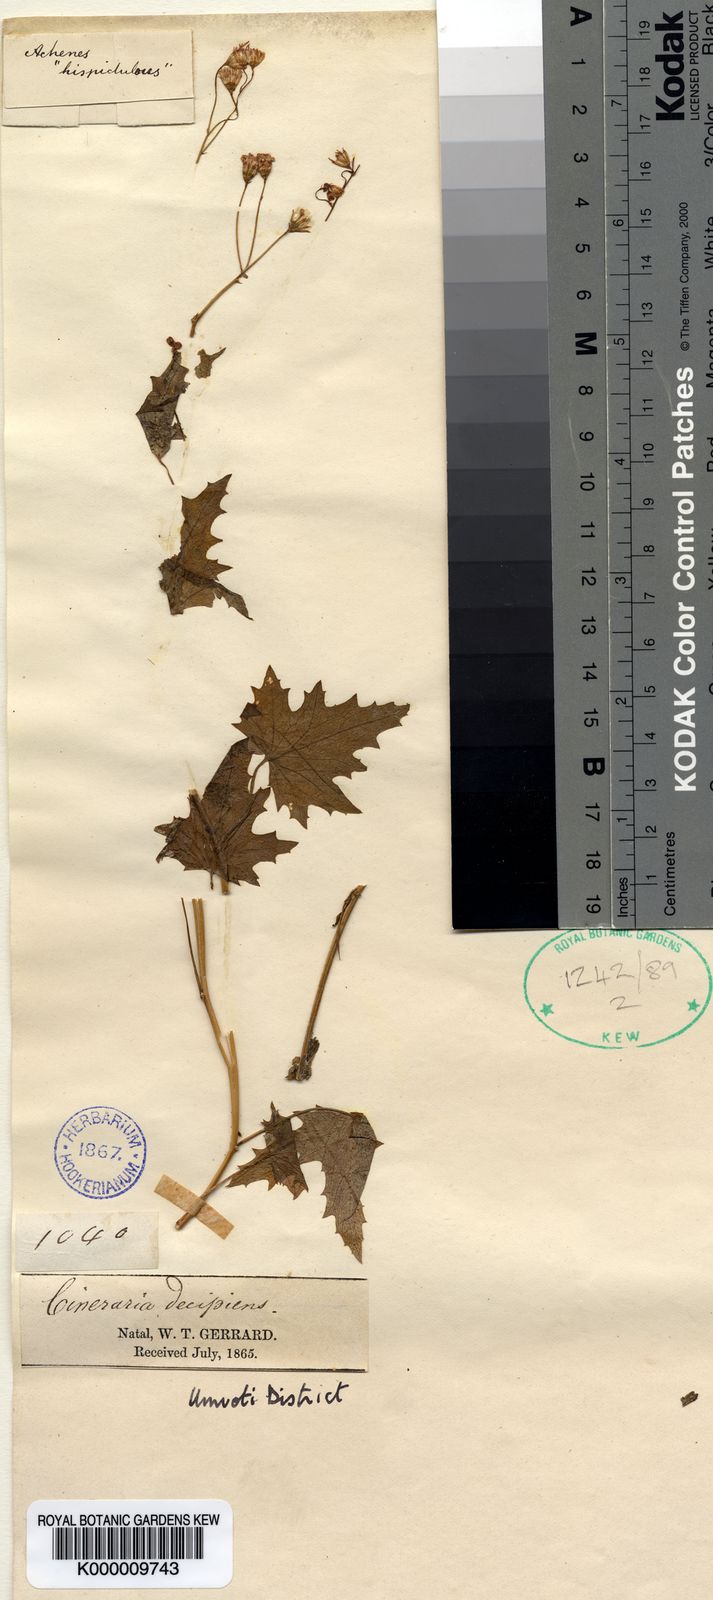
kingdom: Plantae
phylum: Tracheophyta
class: Magnoliopsida
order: Asterales
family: Asteraceae
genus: Cineraria
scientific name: Cineraria decipiens
